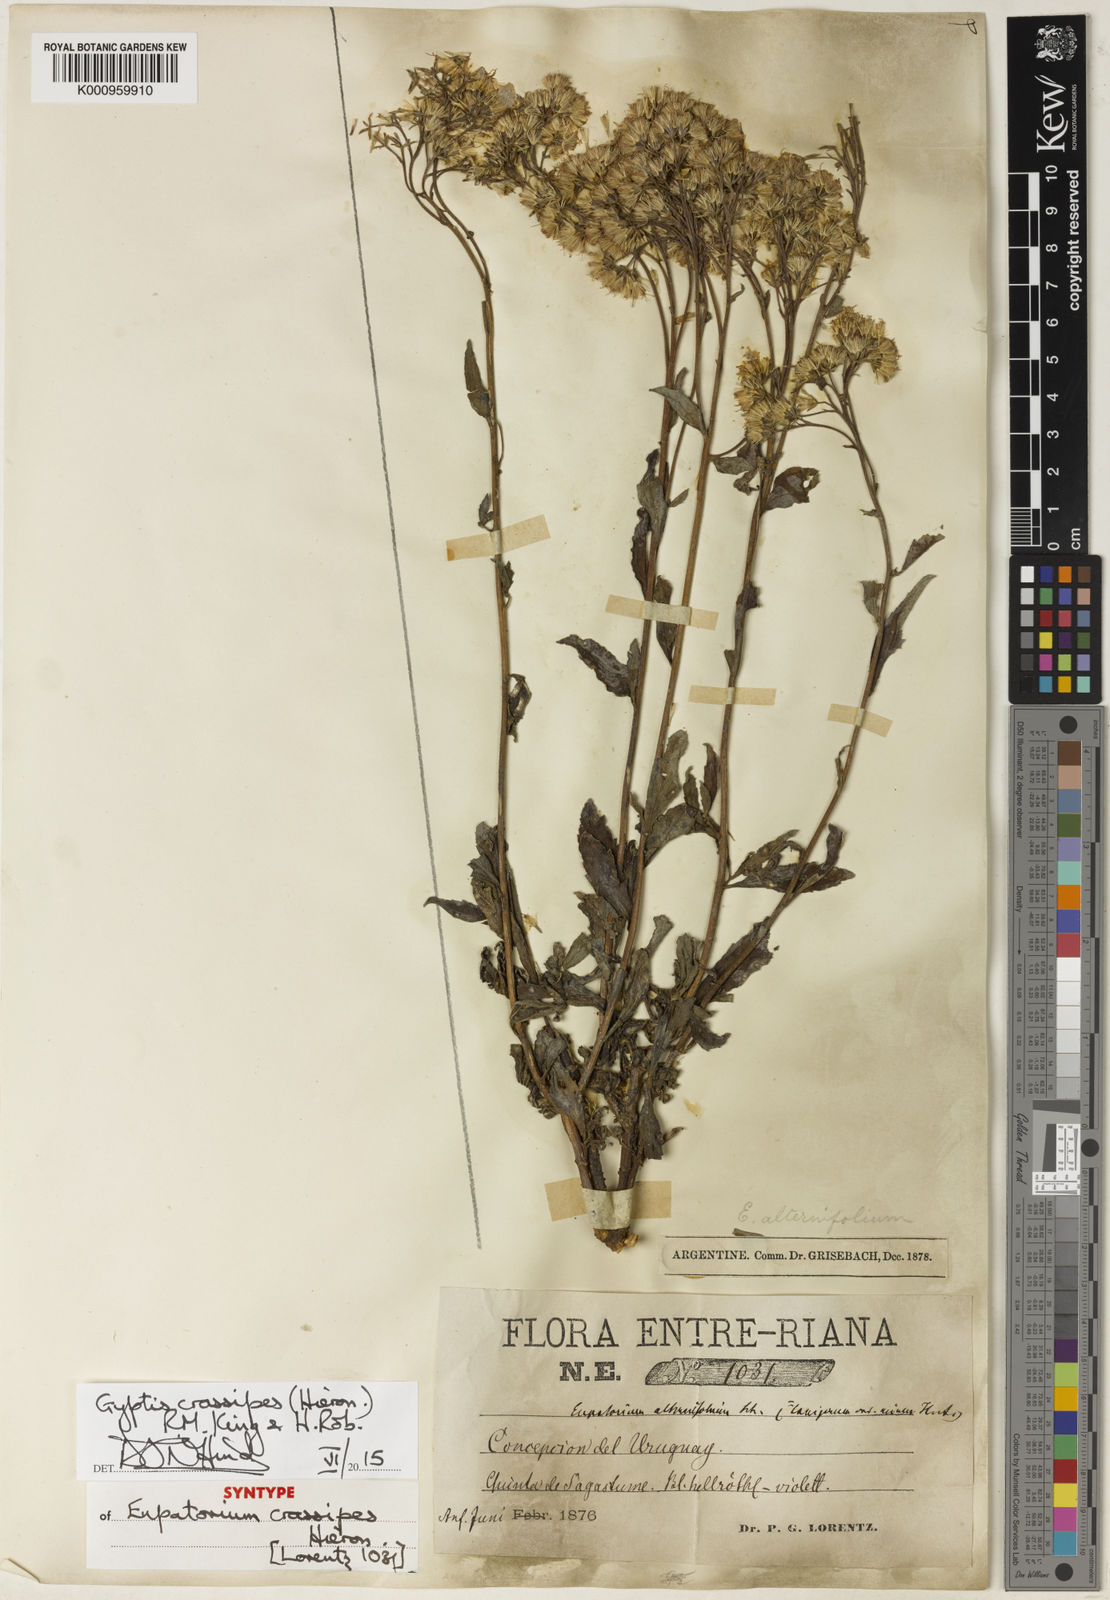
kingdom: Plantae
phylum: Tracheophyta
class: Magnoliopsida
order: Asterales
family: Asteraceae
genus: Gyptis
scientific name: Gyptis crassipes
